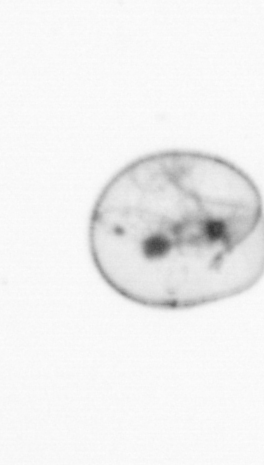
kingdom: Chromista
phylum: Myzozoa
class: Dinophyceae
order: Noctilucales
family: Noctilucaceae
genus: Noctiluca
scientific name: Noctiluca scintillans
